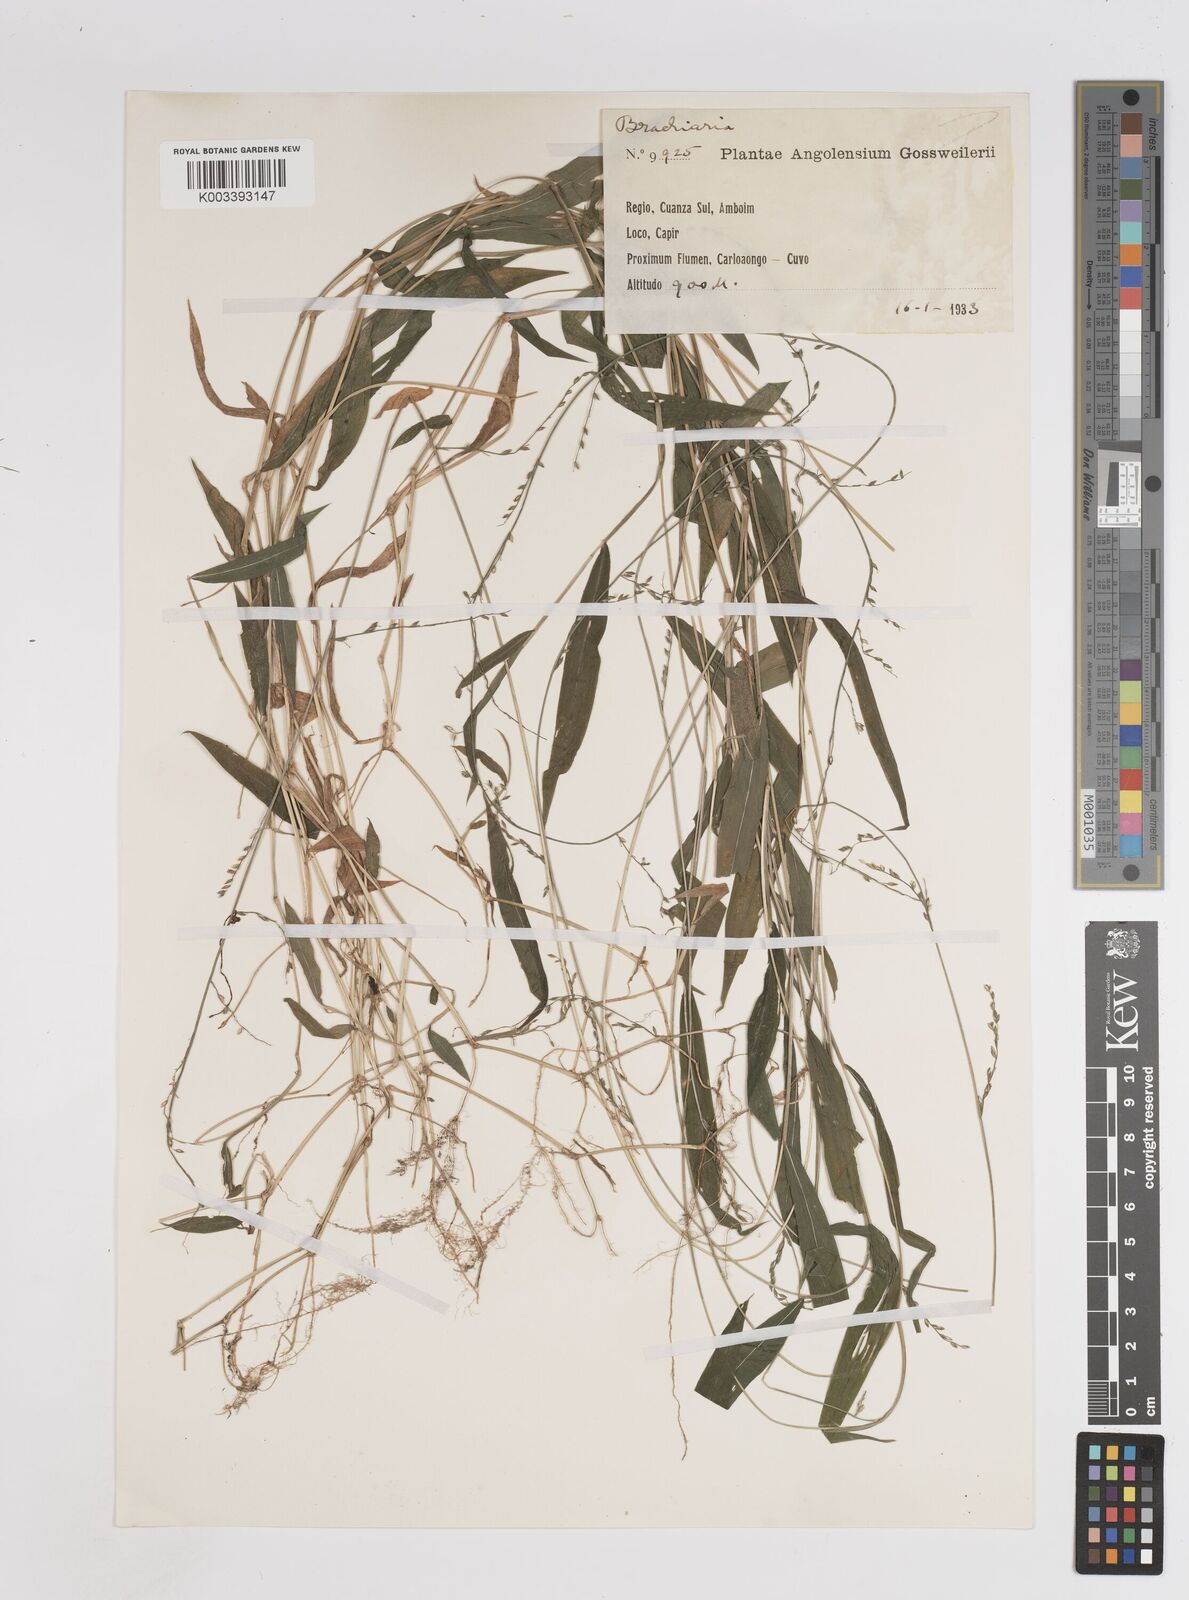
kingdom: Plantae
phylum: Tracheophyta
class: Liliopsida
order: Poales
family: Poaceae
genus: Panicum
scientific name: Panicum robynsii
